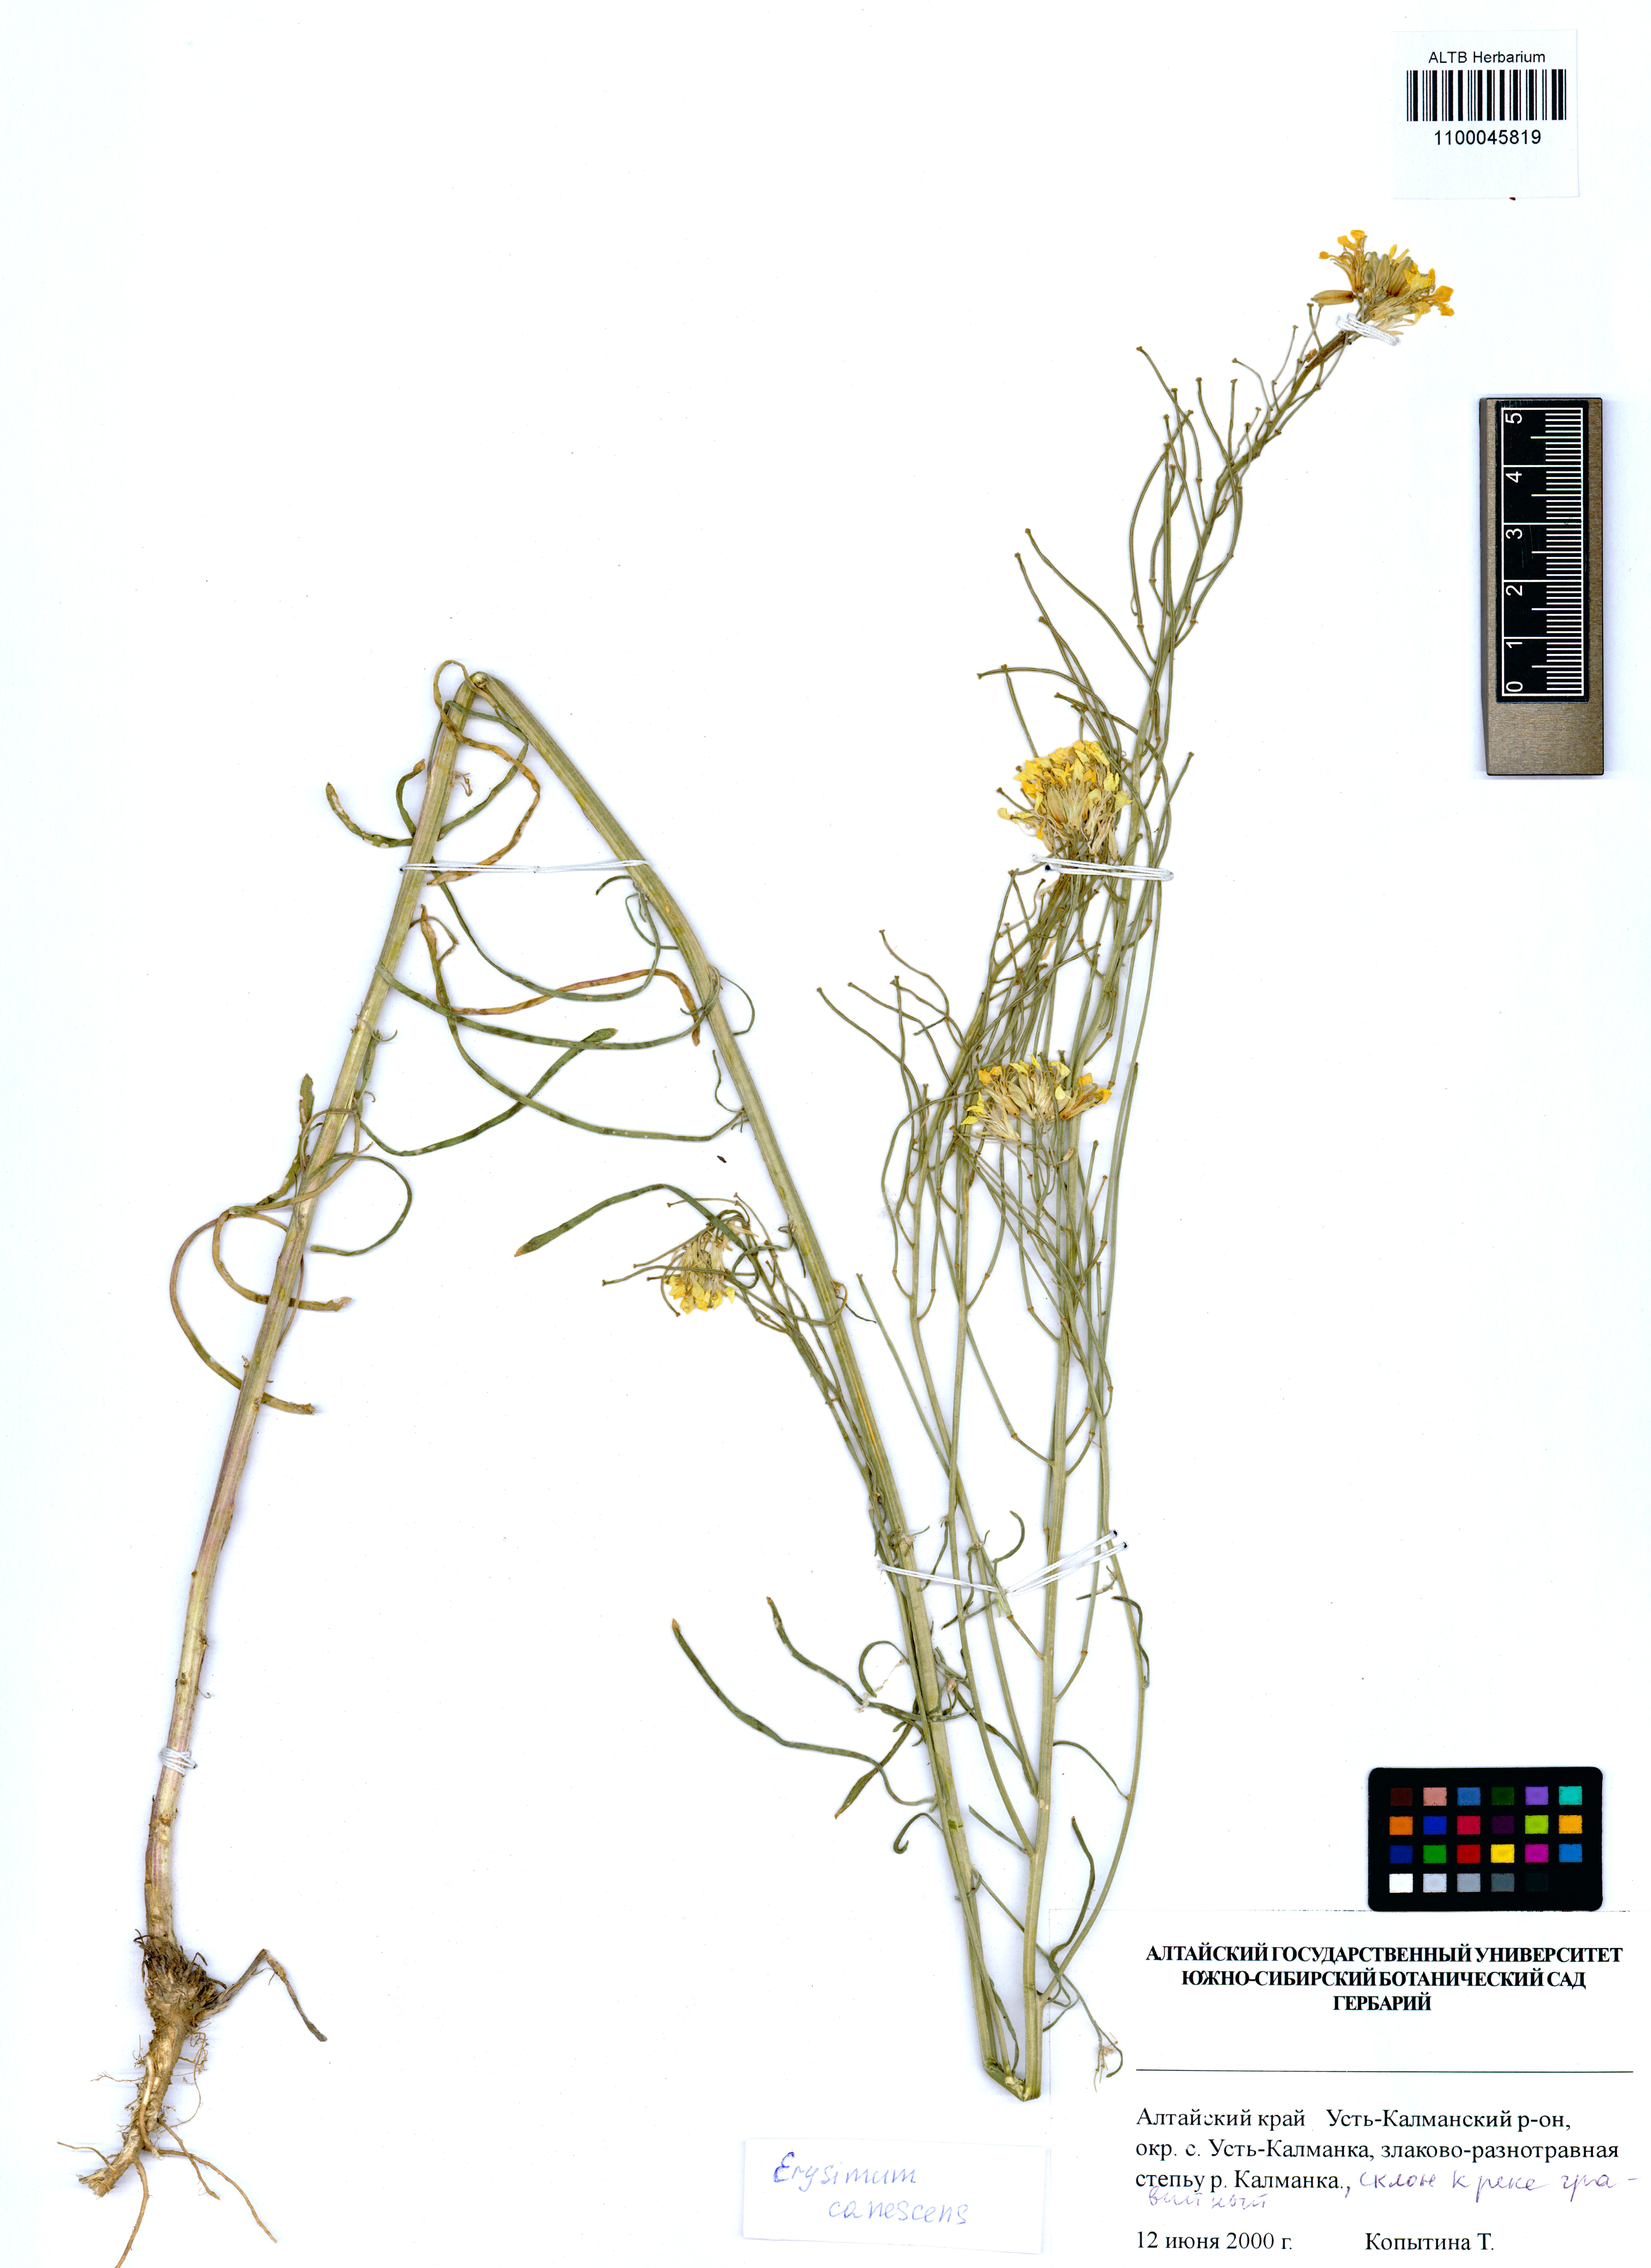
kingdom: Plantae
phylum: Tracheophyta
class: Magnoliopsida
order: Brassicales
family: Brassicaceae
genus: Erysimum
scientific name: Erysimum canescens
